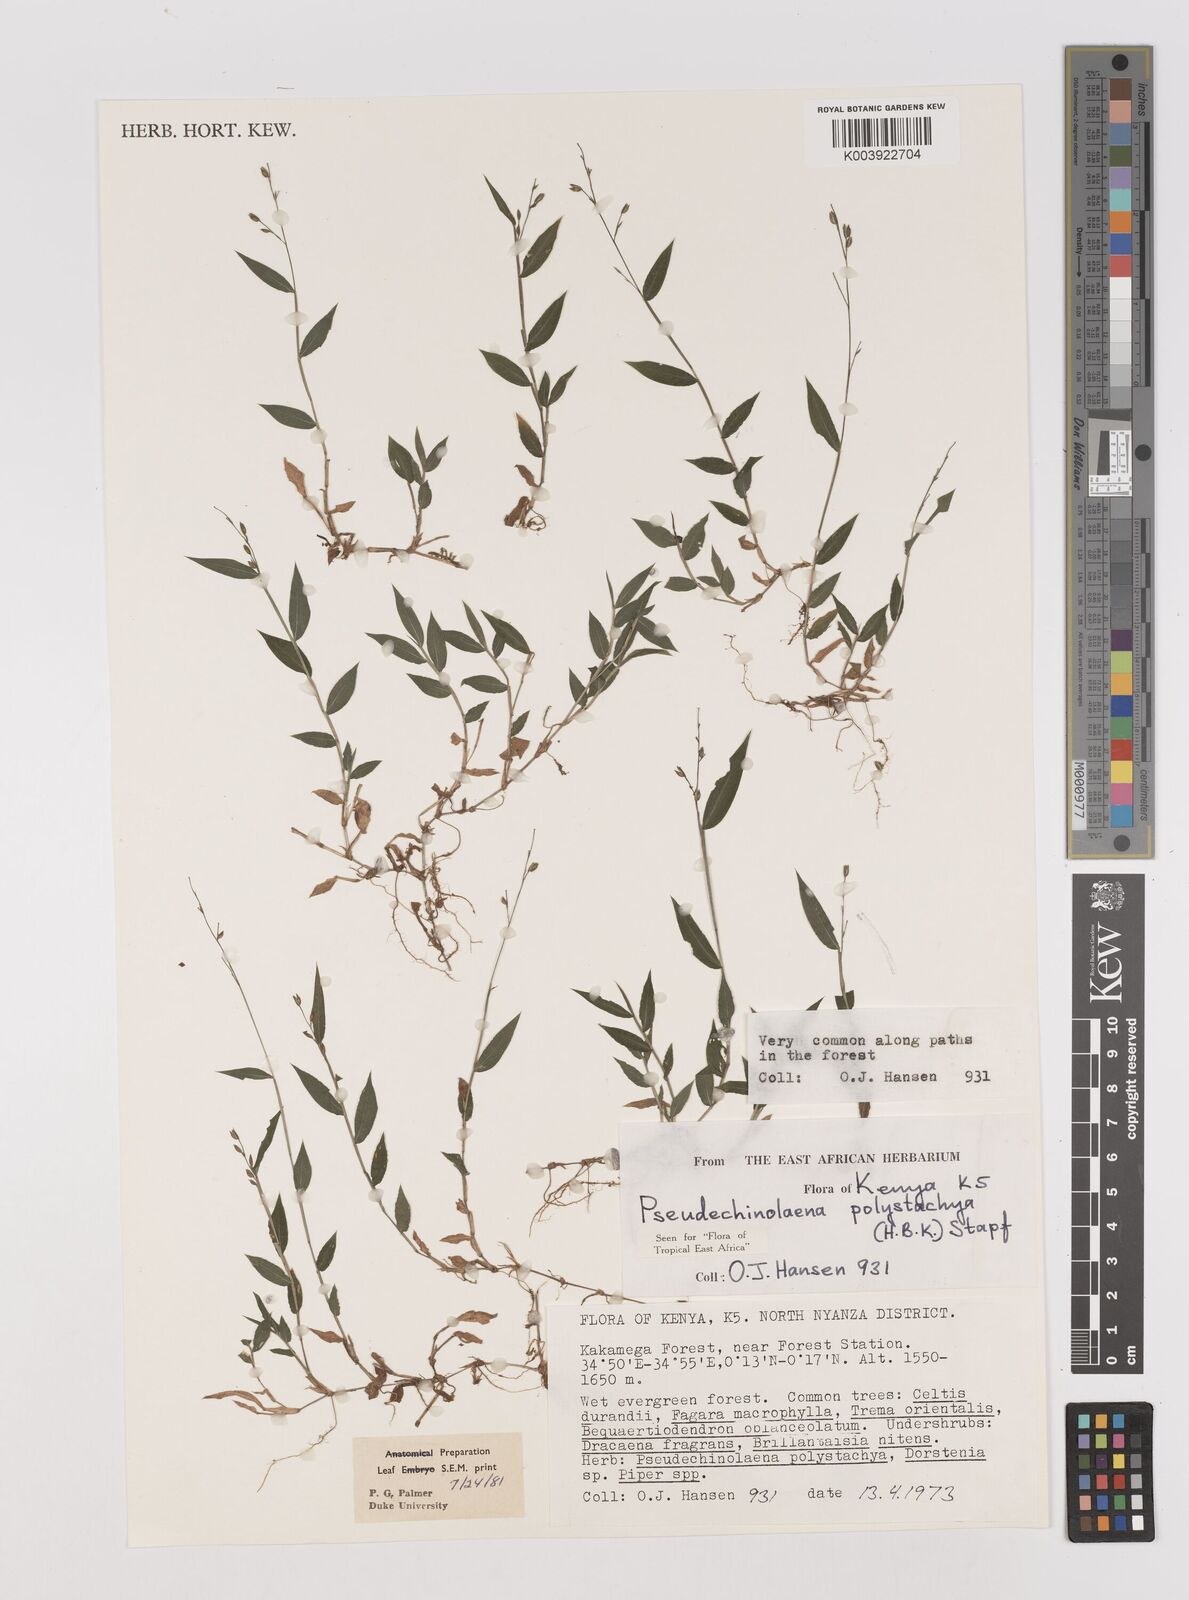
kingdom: Plantae
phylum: Tracheophyta
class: Liliopsida
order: Poales
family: Poaceae
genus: Pseudechinolaena
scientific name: Pseudechinolaena polystachya
